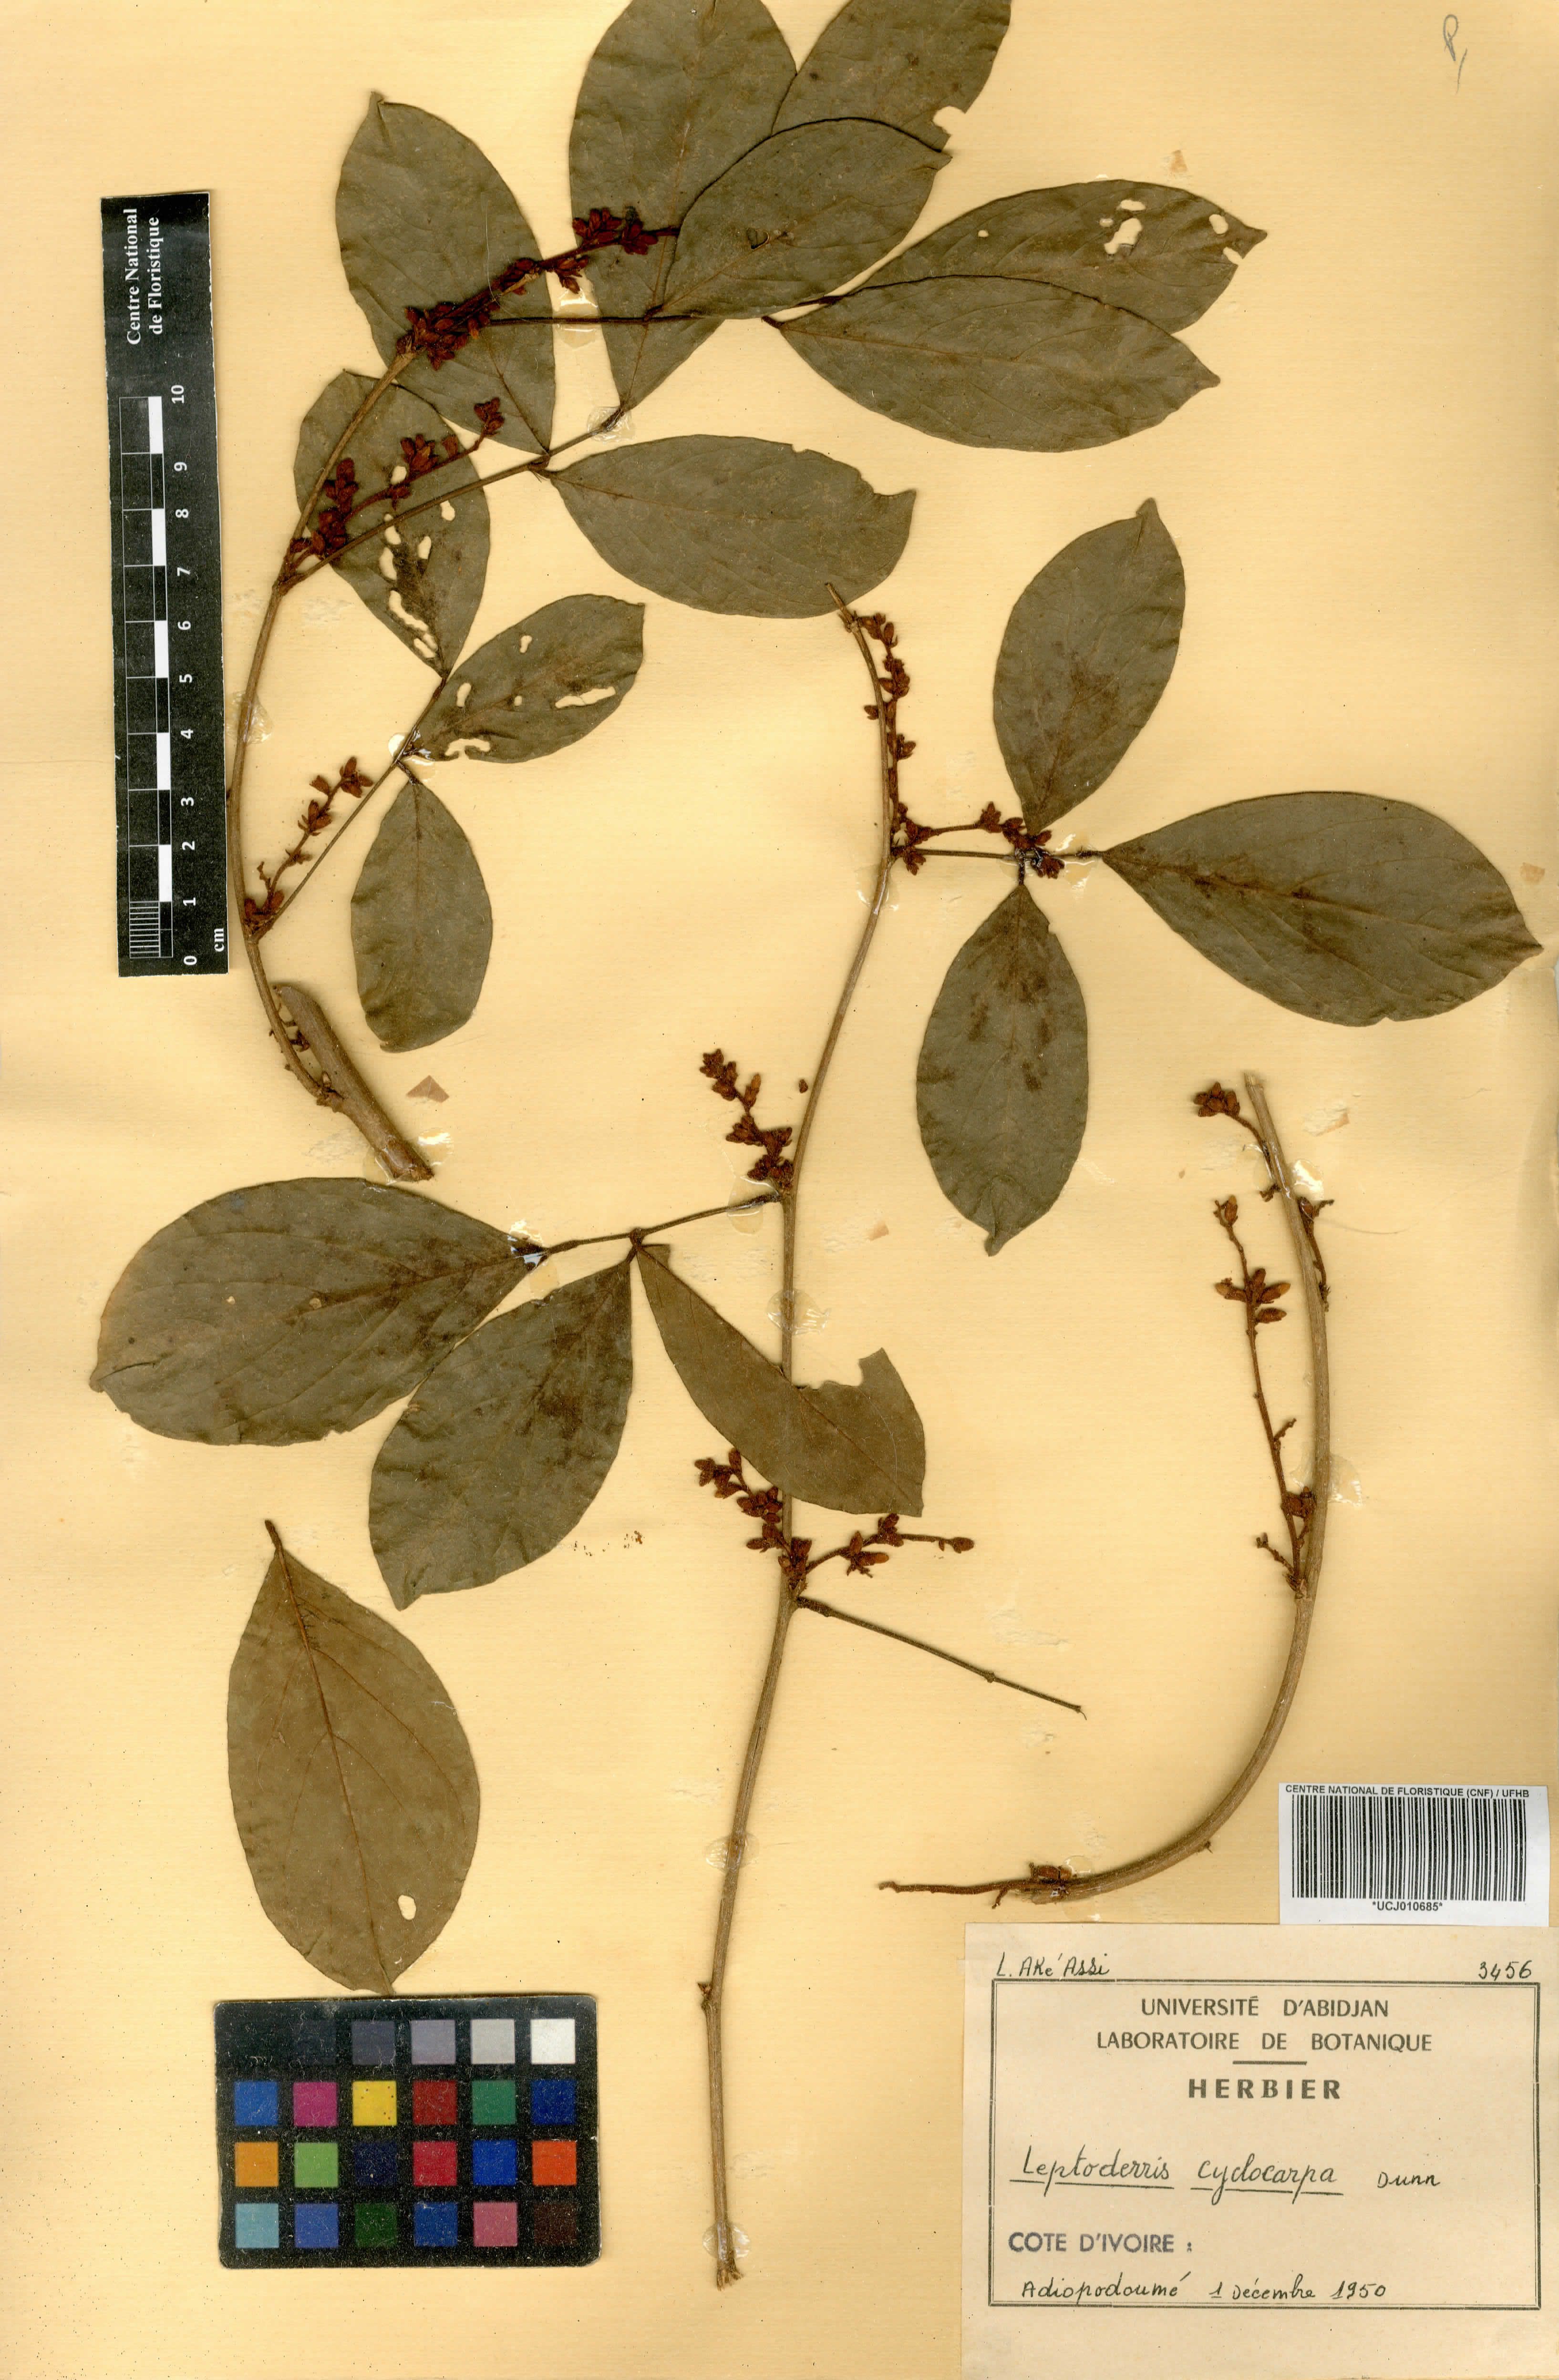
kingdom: Plantae
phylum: Tracheophyta
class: Magnoliopsida
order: Fabales
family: Fabaceae
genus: Leptoderris
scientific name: Leptoderris cyclocarpa
